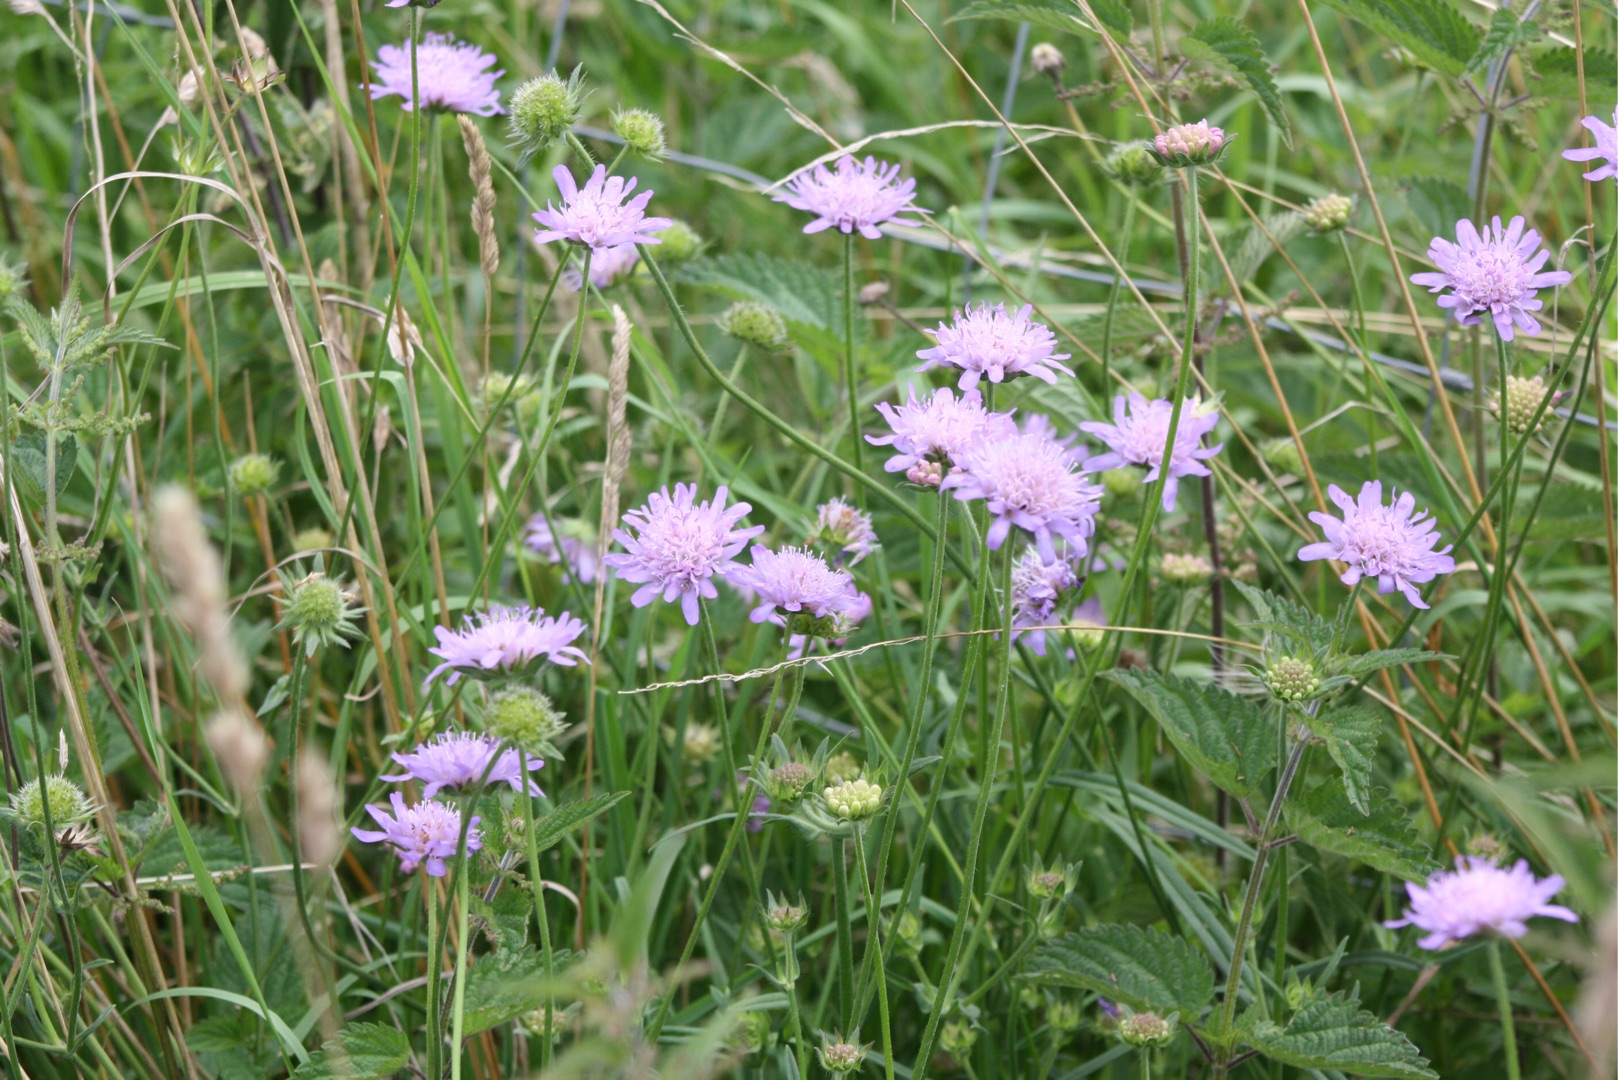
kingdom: Plantae
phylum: Tracheophyta
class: Magnoliopsida
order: Dipsacales
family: Caprifoliaceae
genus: Knautia
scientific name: Knautia arvensis
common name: Blåhat
